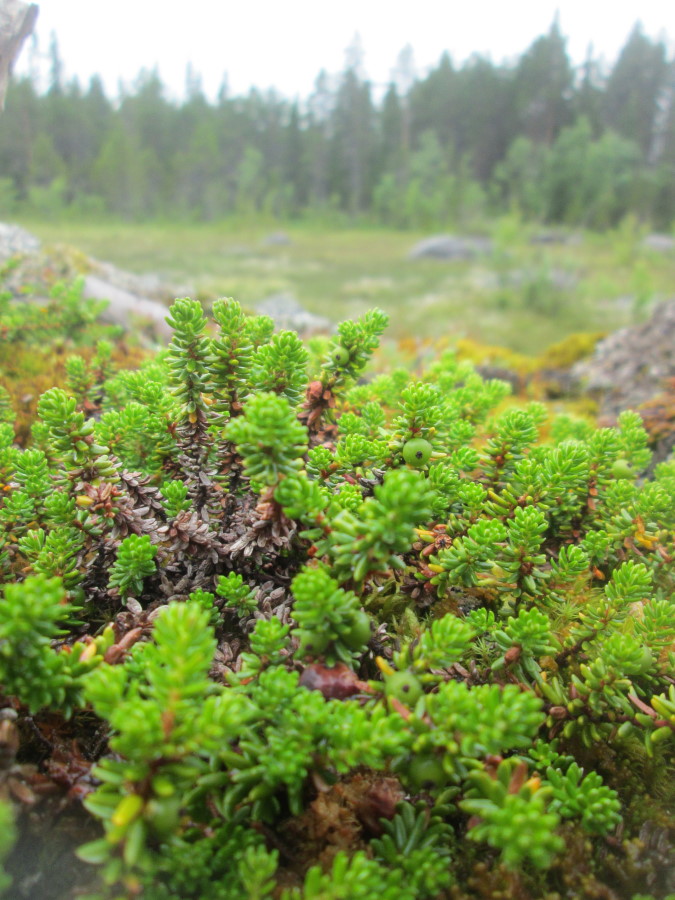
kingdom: Plantae
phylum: Tracheophyta
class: Magnoliopsida
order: Ericales
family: Ericaceae
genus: Empetrum
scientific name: Empetrum hermaphroditum
